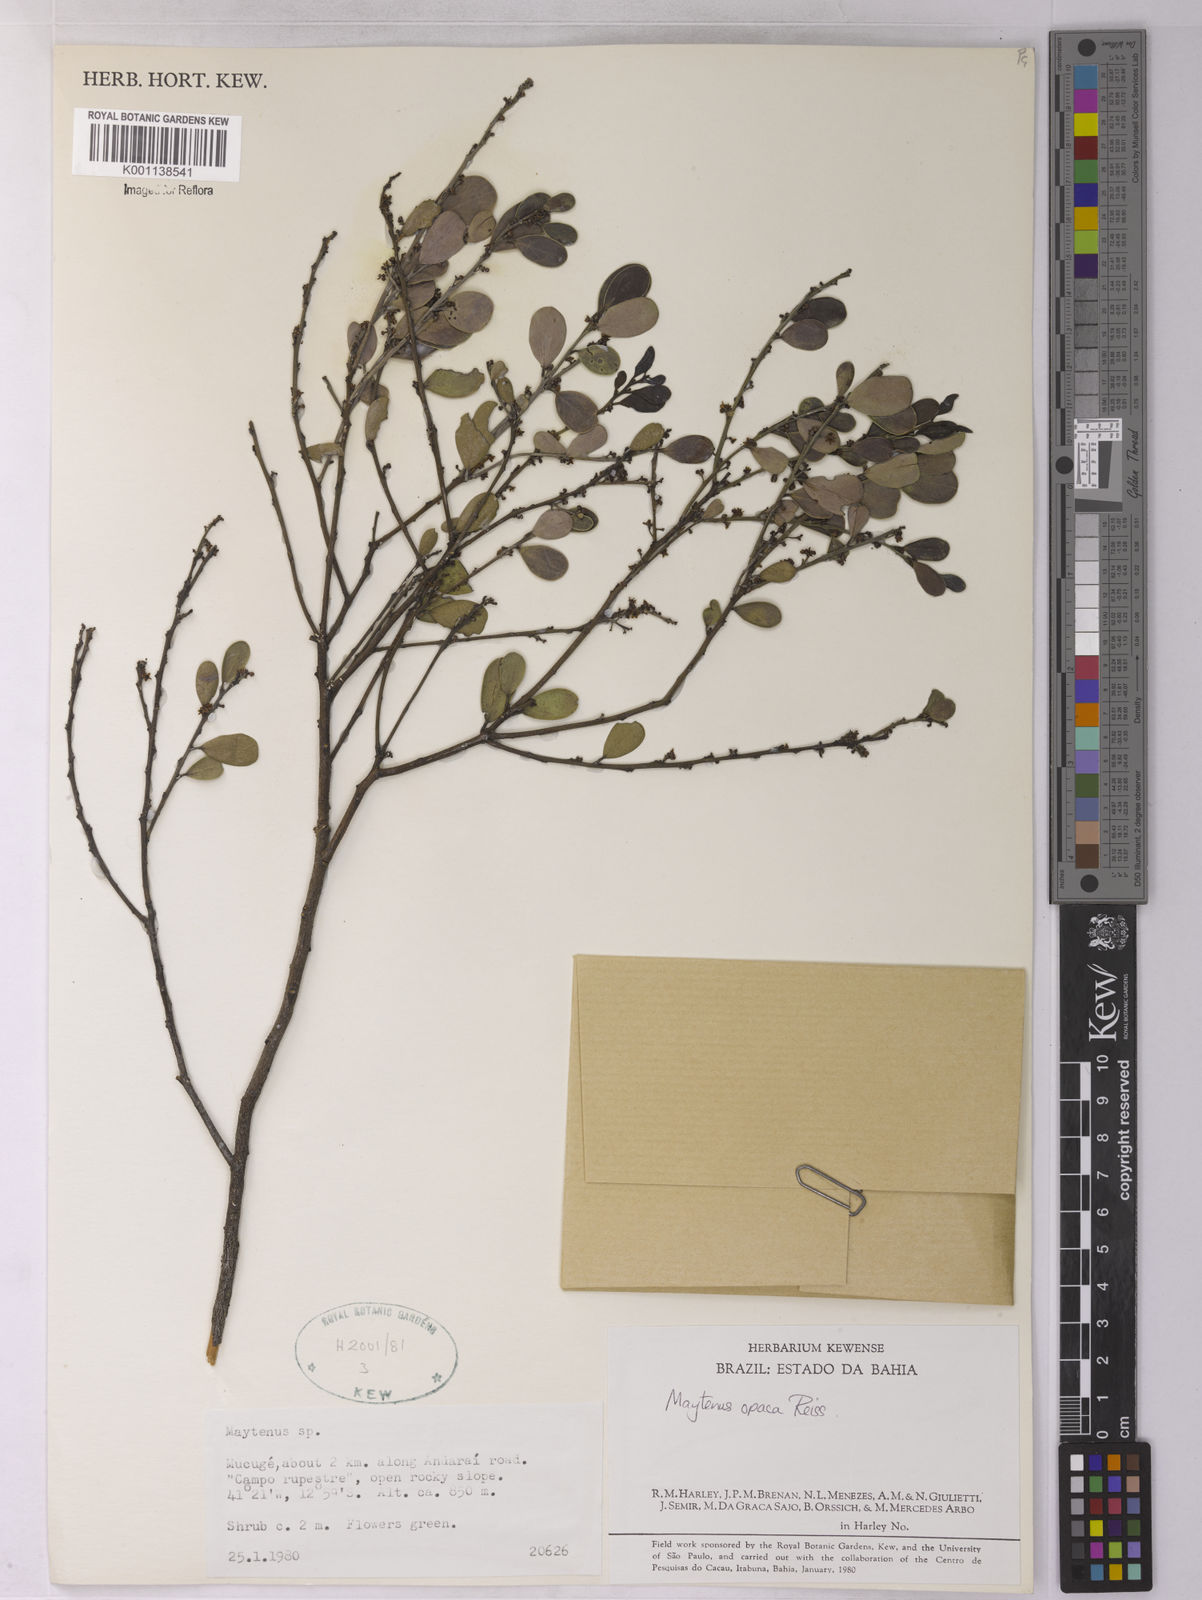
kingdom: Plantae
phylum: Tracheophyta
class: Magnoliopsida
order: Celastrales
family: Celastraceae
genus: Monteverdia
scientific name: Monteverdia opaca
